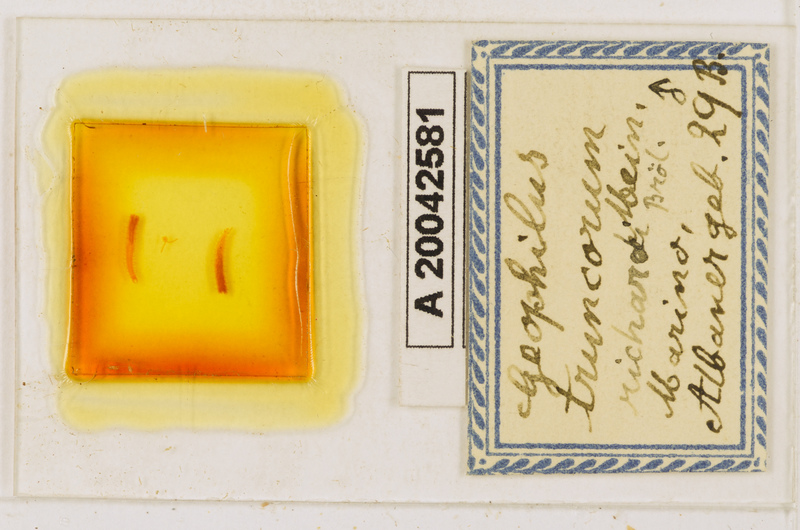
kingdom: Animalia
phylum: Arthropoda
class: Chilopoda
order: Geophilomorpha
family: Geophilidae
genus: Geophilus
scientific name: Geophilus truncorum
